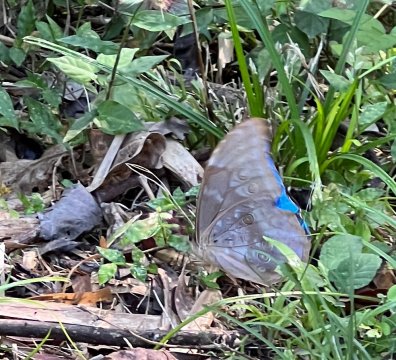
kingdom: Animalia
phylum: Arthropoda
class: Insecta
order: Lepidoptera
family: Nymphalidae
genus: Morpho
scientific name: Morpho menelaus
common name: Menelaus Morpho
